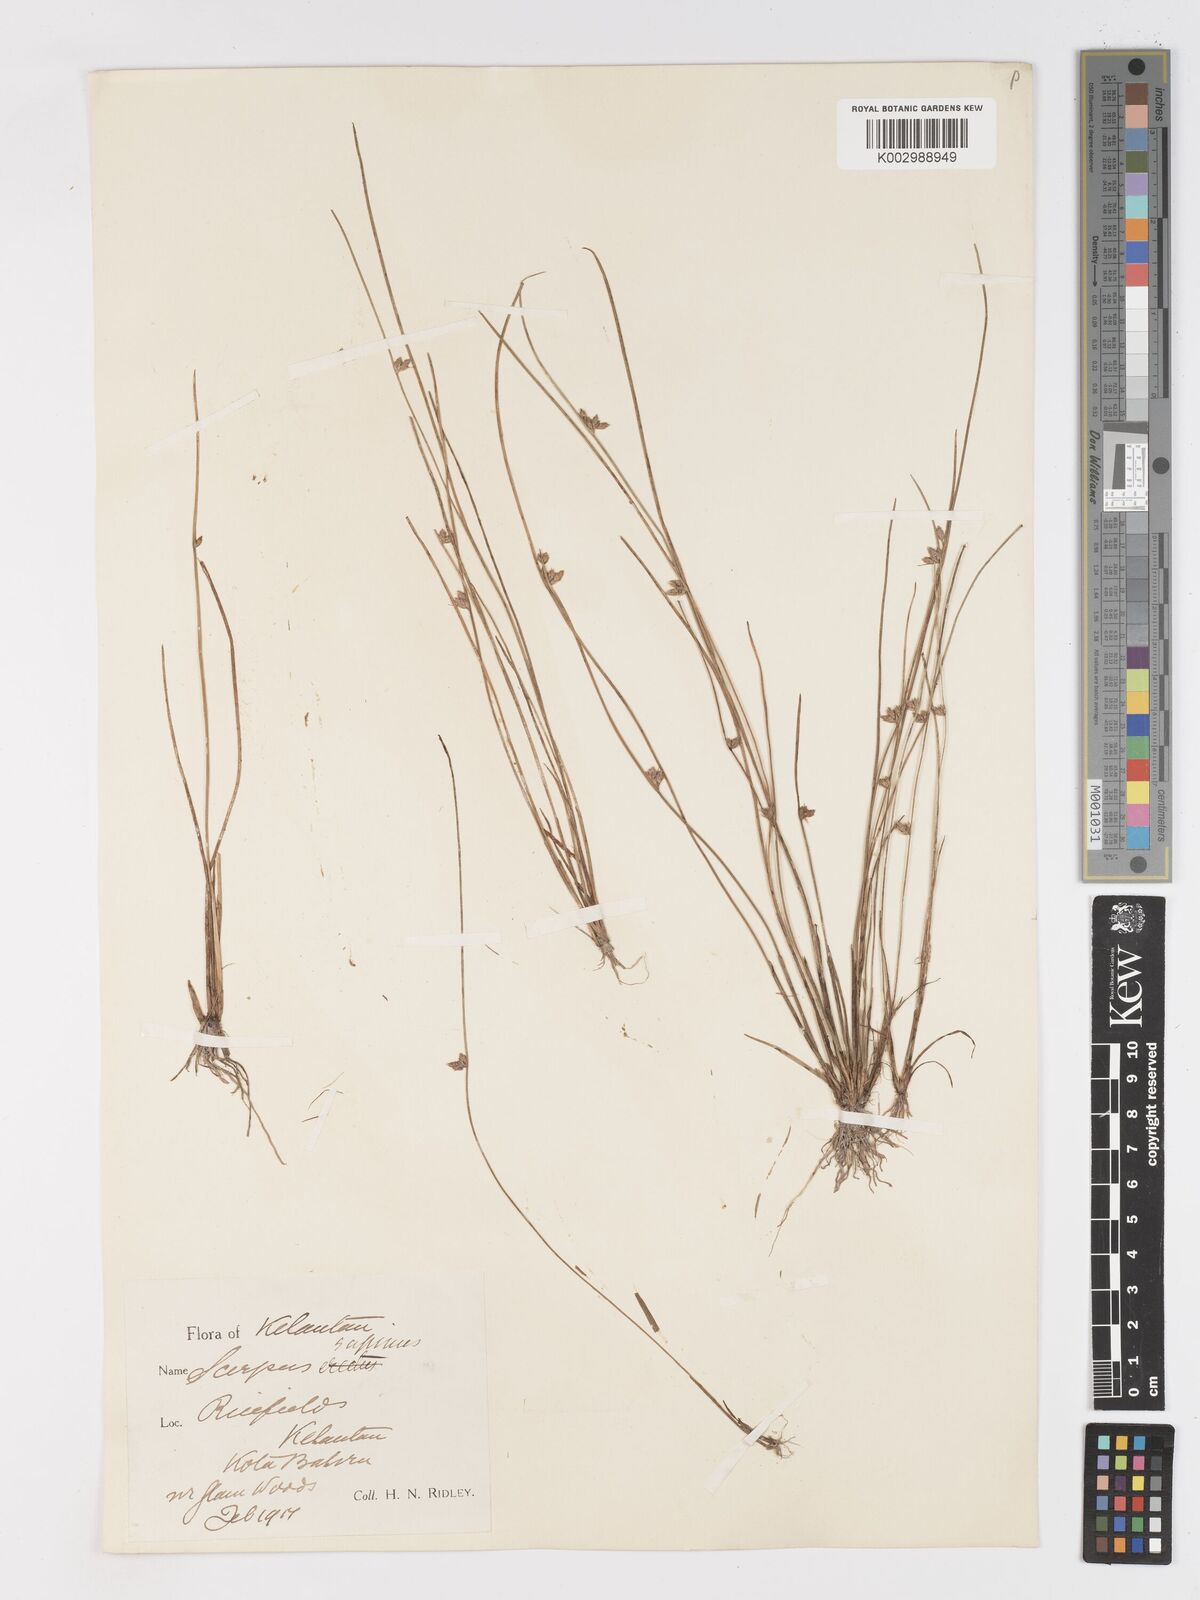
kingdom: Plantae
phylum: Tracheophyta
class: Liliopsida
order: Poales
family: Cyperaceae
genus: Schoenoplectiella
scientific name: Schoenoplectiella lateriflora
